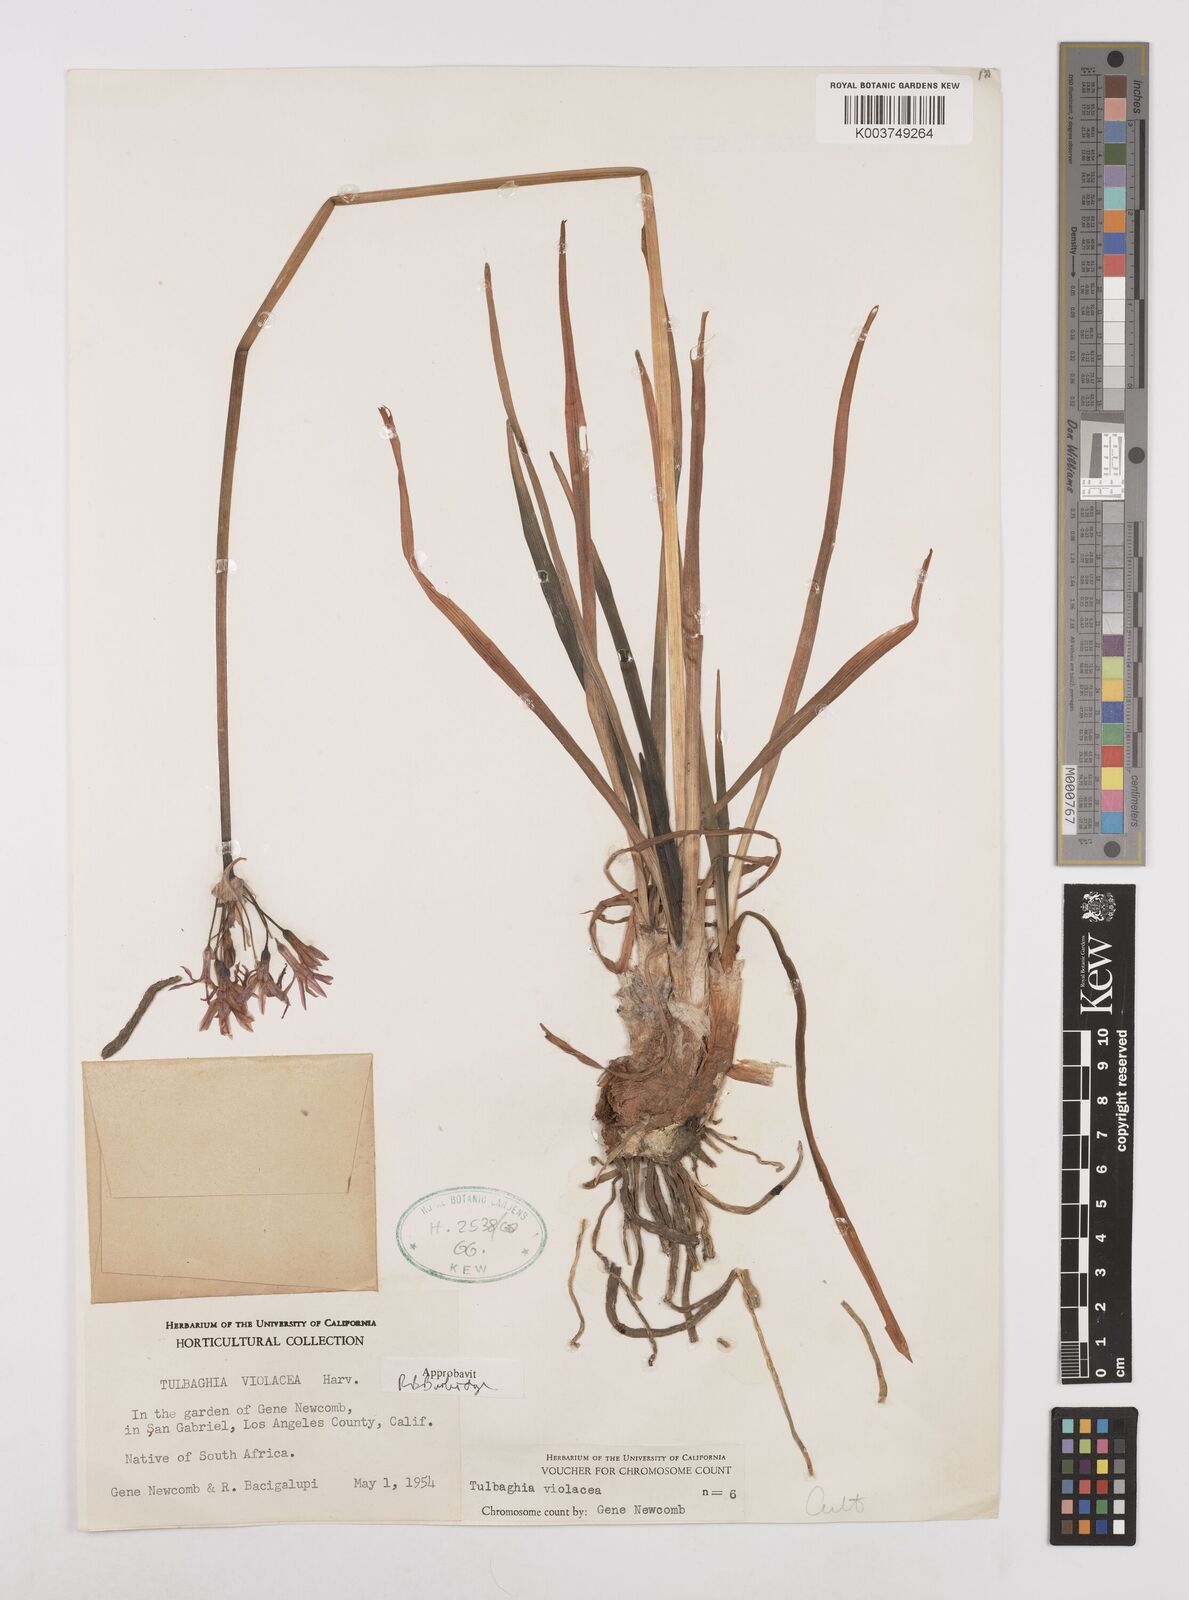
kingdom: Plantae
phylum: Tracheophyta
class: Liliopsida
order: Asparagales
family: Amaryllidaceae
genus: Tulbaghia
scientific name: Tulbaghia violacea
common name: Society garlic
